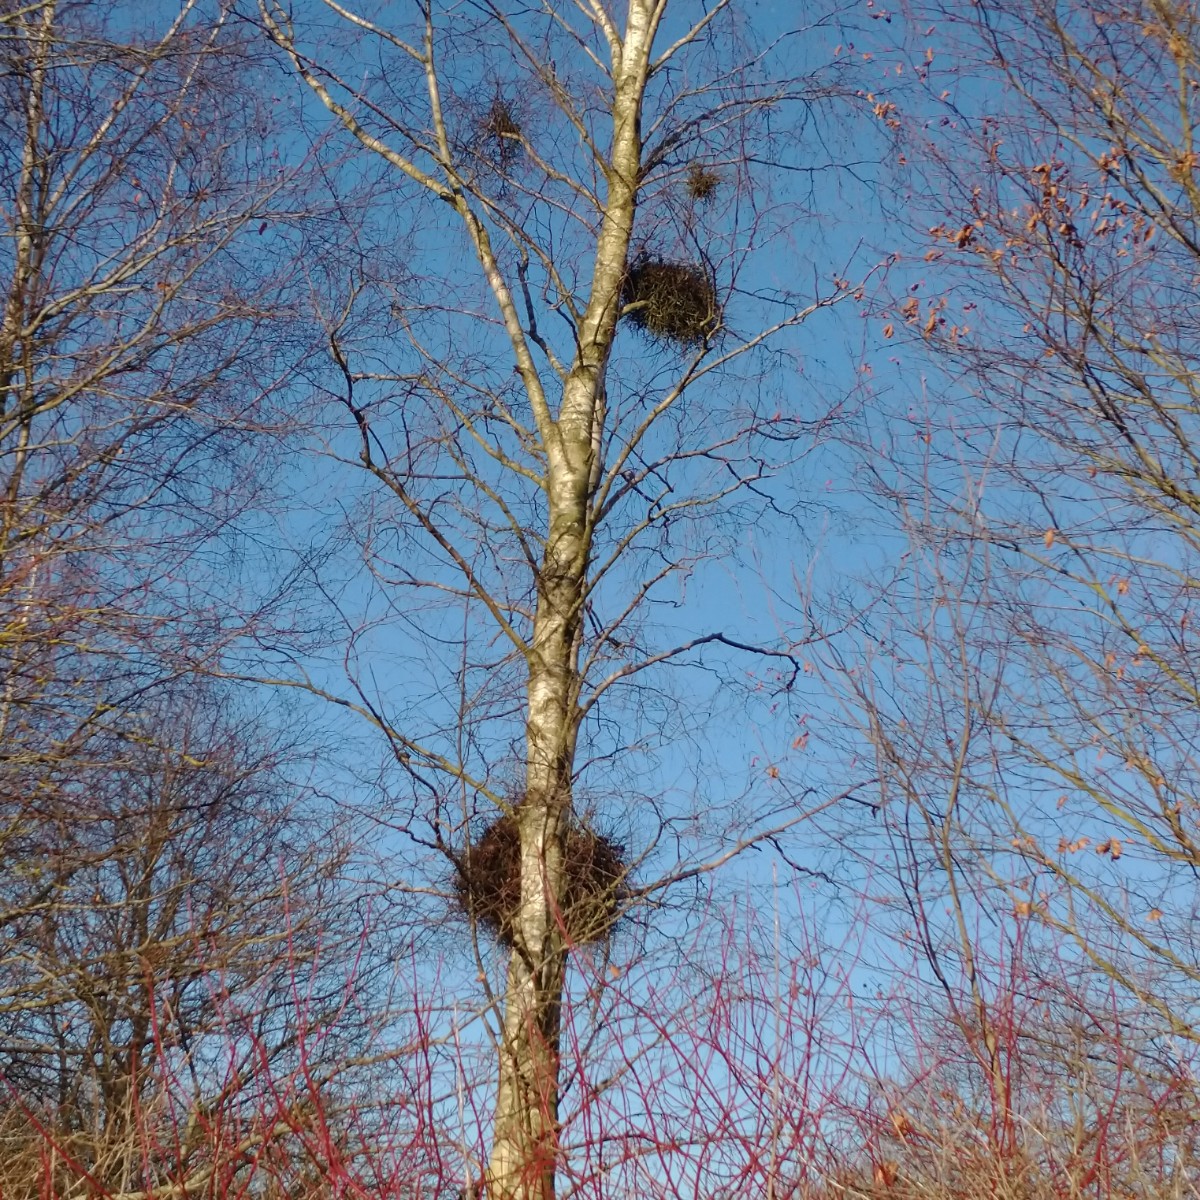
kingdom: Fungi
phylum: Ascomycota
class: Taphrinomycetes
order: Taphrinales
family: Taphrinaceae
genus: Taphrina
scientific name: Taphrina betulina
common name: hekse-sækdug
